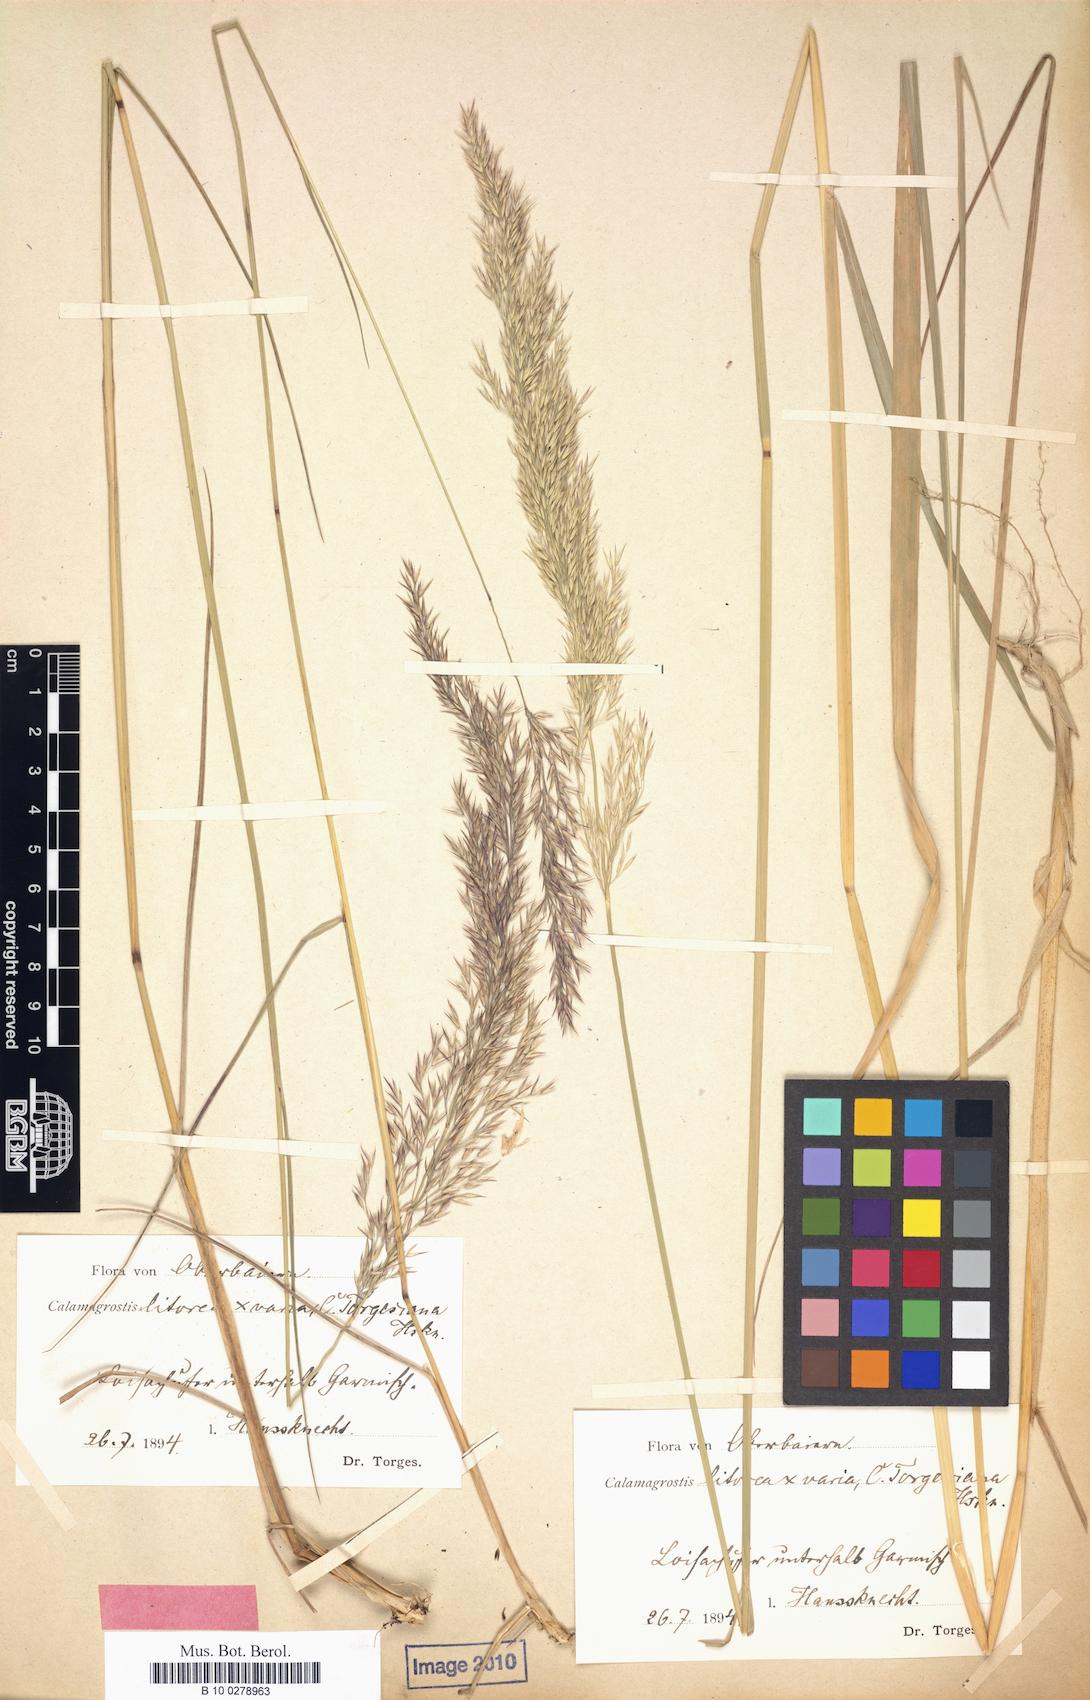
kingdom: Plantae
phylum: Tracheophyta
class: Liliopsida
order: Poales
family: Poaceae
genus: Calamagrostis
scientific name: Calamagrostis torgesiana
